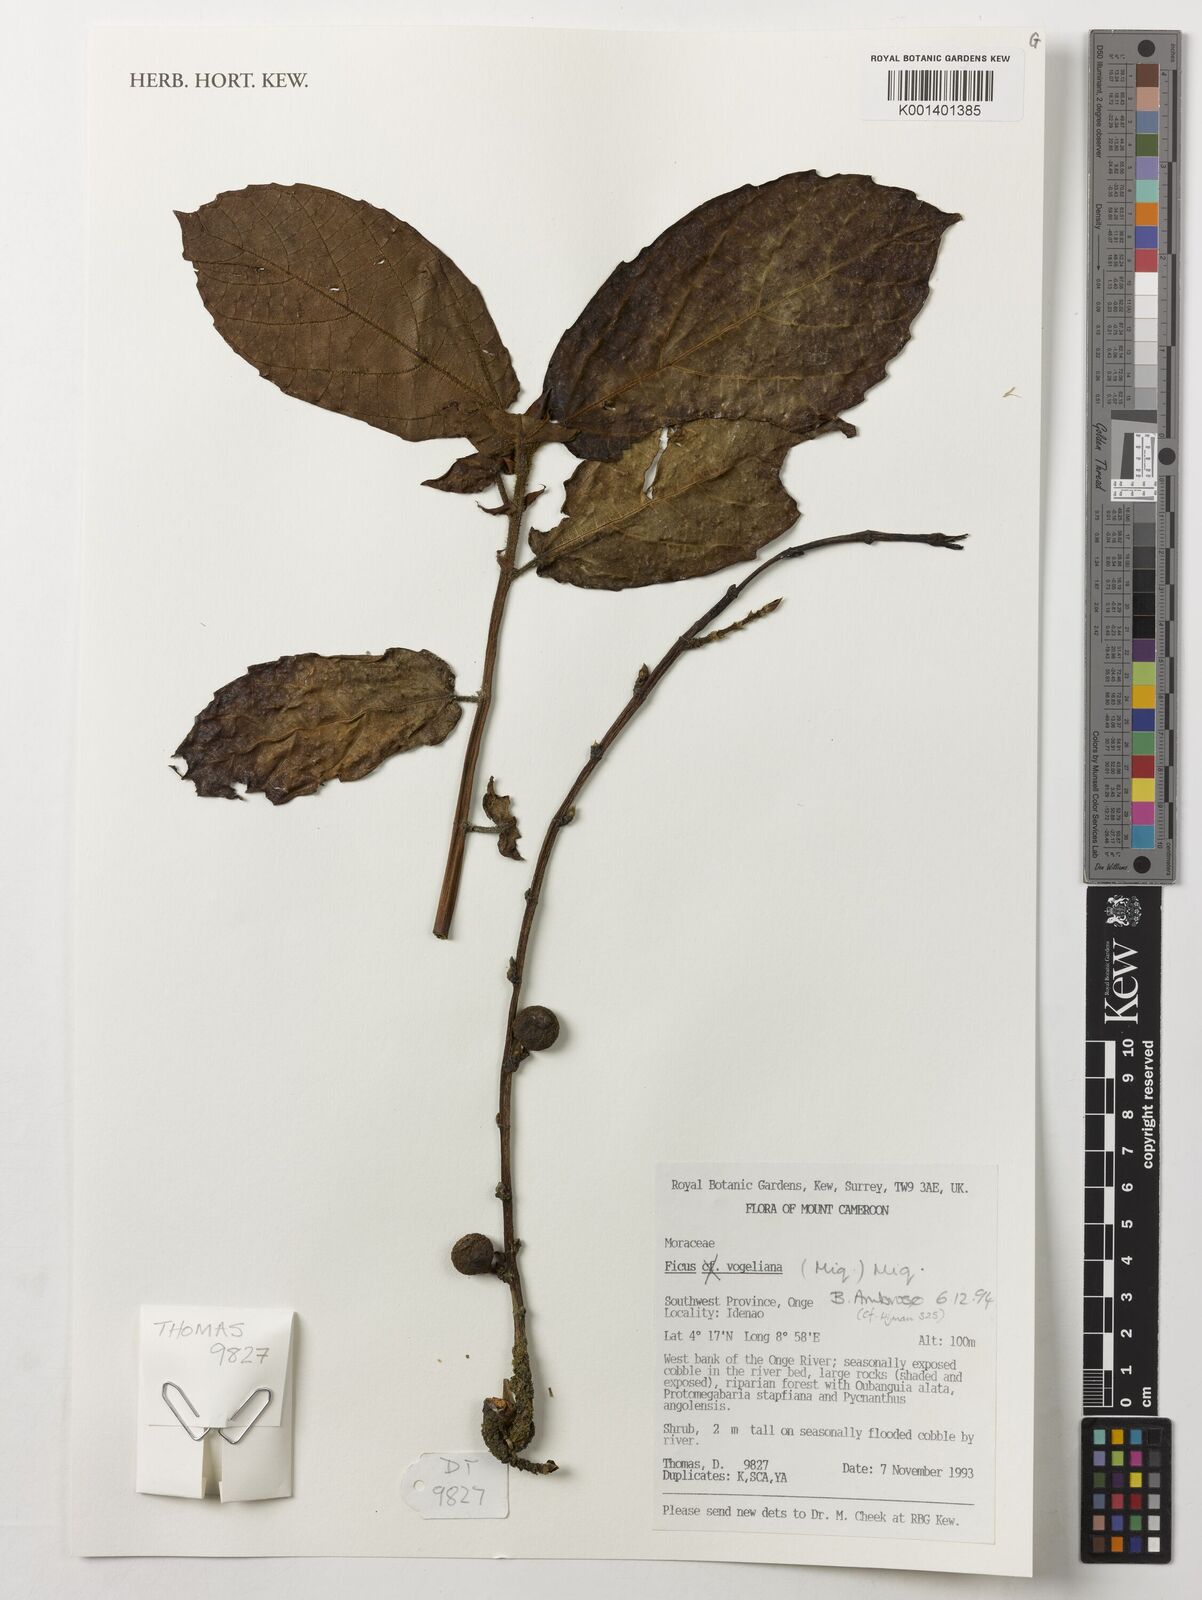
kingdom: Plantae
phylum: Tracheophyta
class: Magnoliopsida
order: Rosales
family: Moraceae
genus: Ficus
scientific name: Ficus vogeliana
